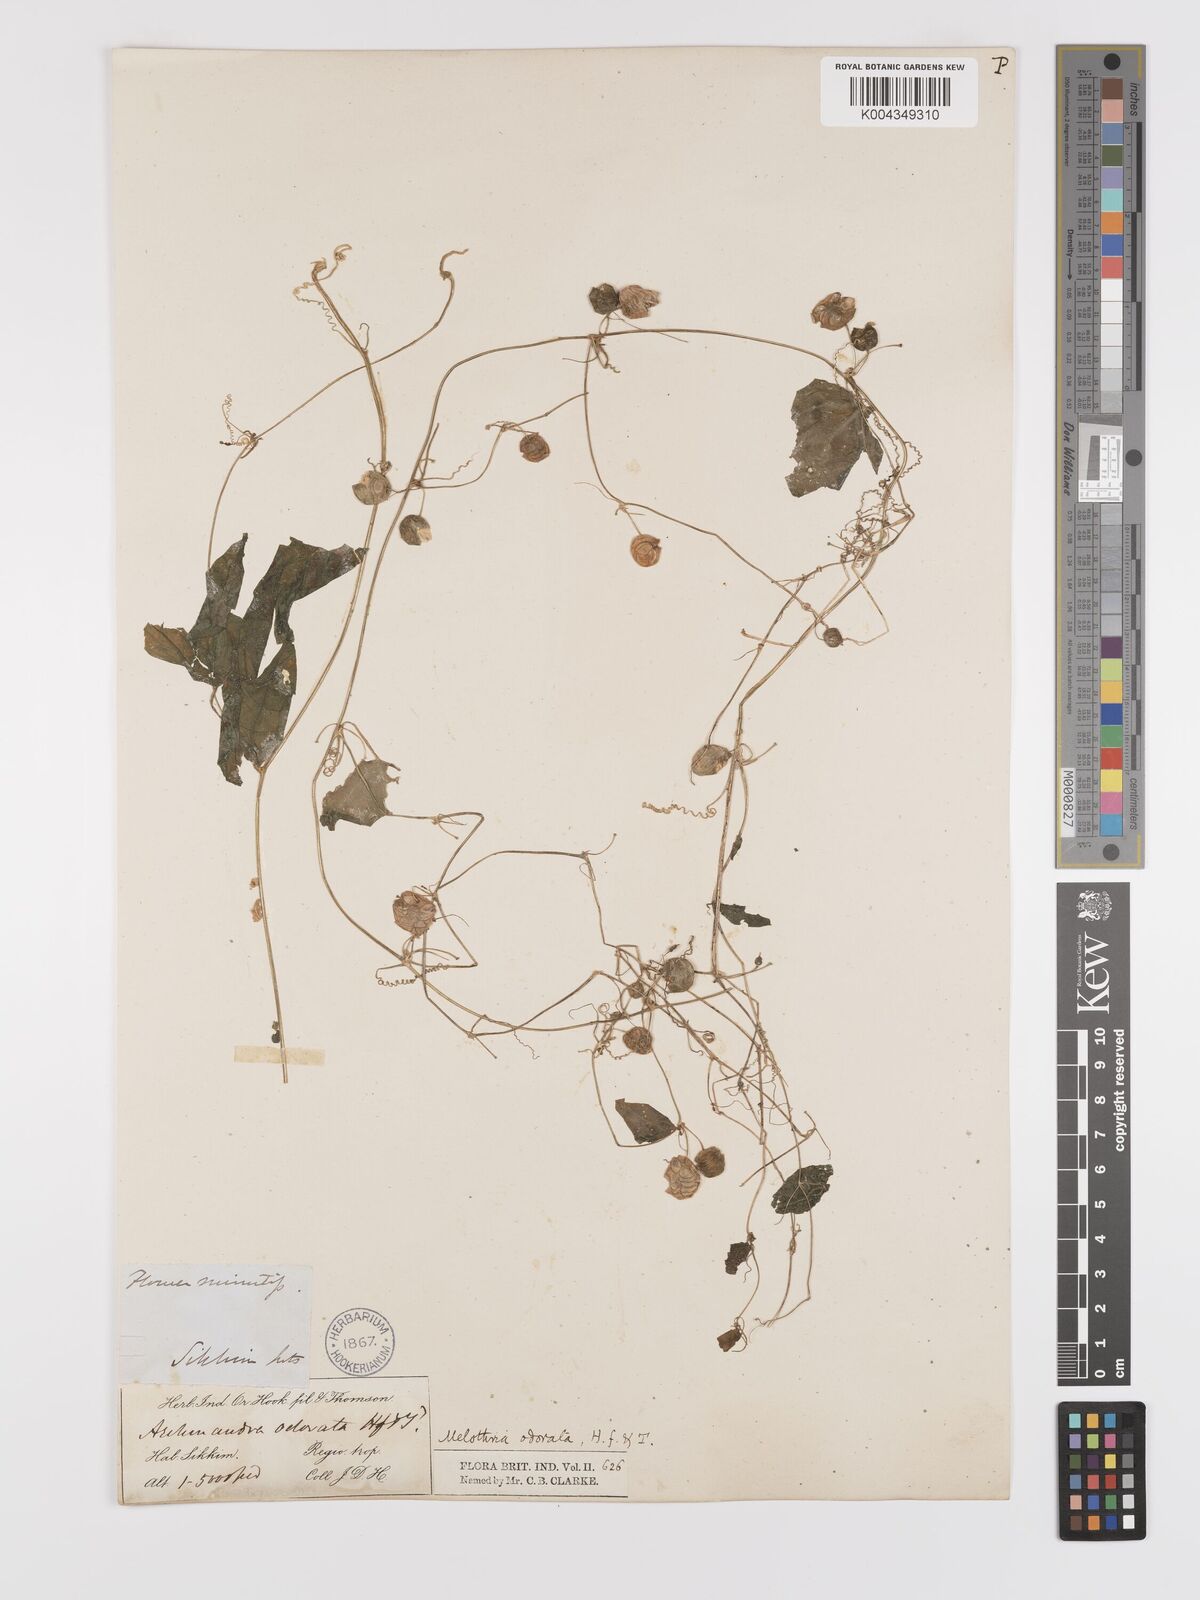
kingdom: Plantae
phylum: Tracheophyta
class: Magnoliopsida
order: Cucurbitales
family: Cucurbitaceae
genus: Zehneria
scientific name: Zehneria odorata
